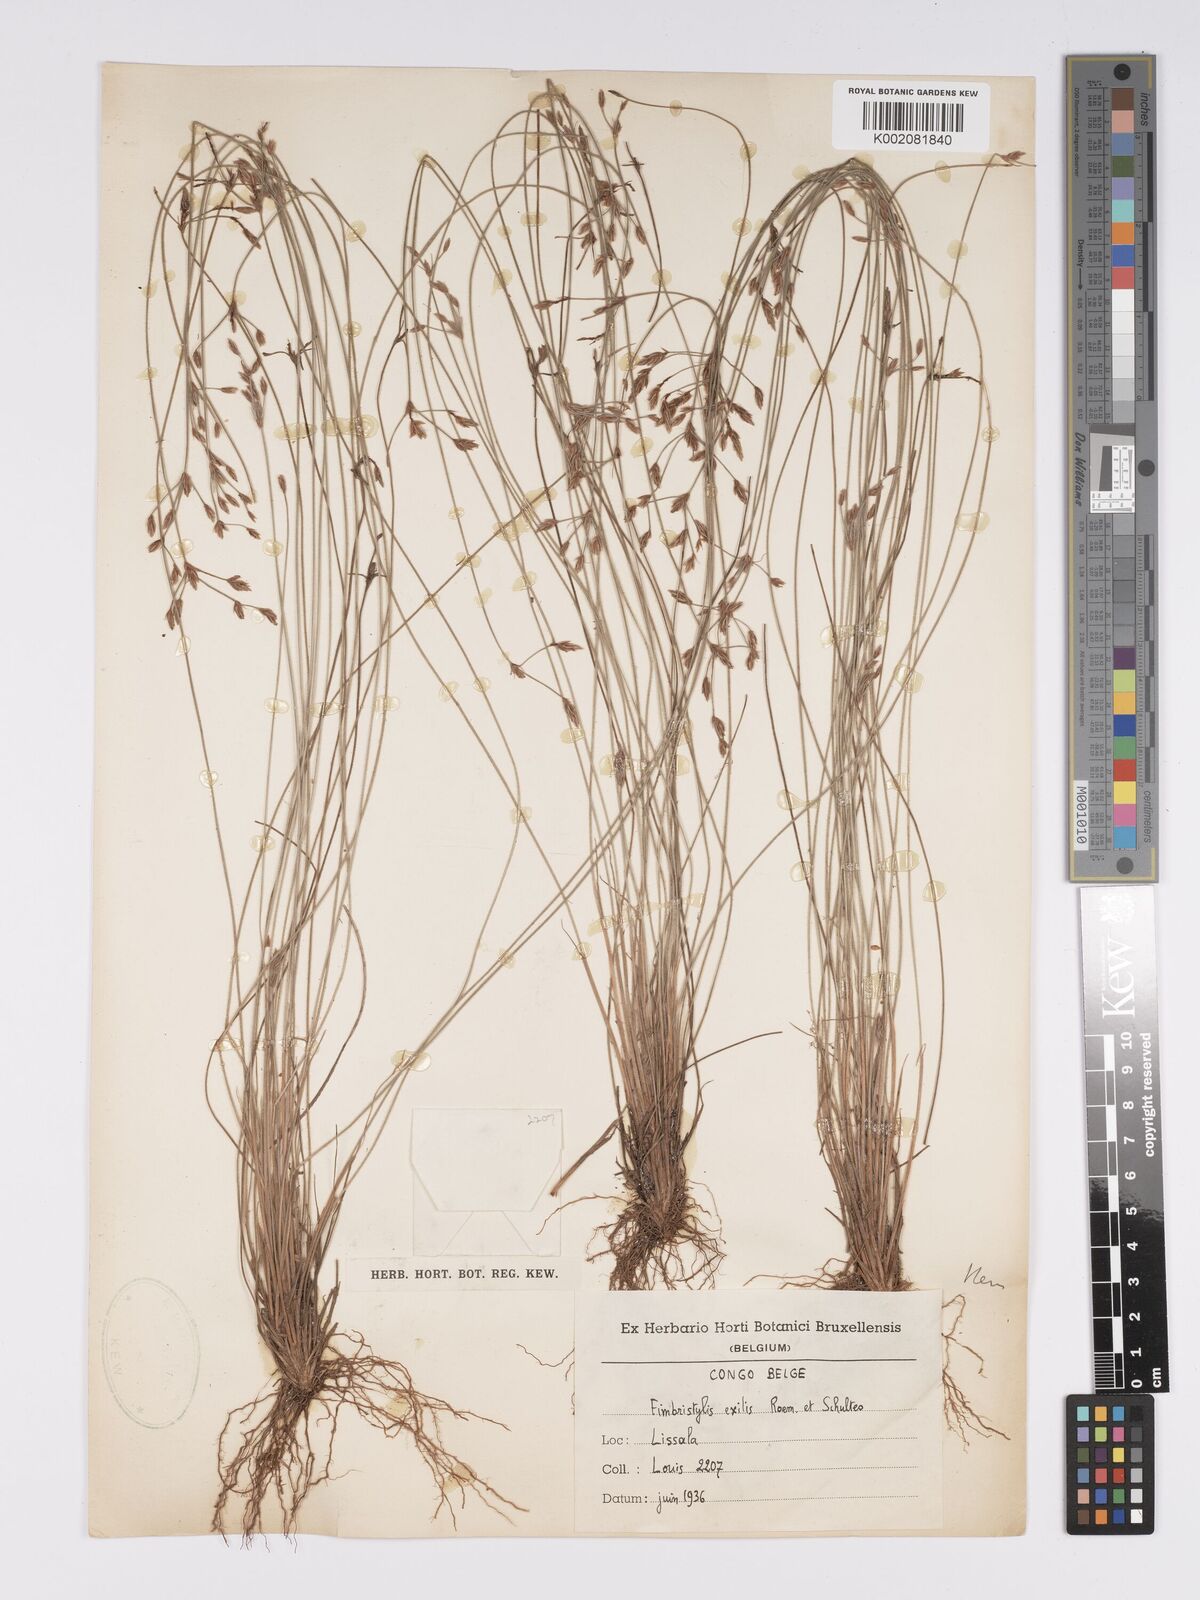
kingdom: Plantae
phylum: Tracheophyta
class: Liliopsida
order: Poales
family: Cyperaceae
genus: Bulbostylis
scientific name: Bulbostylis hispidula
